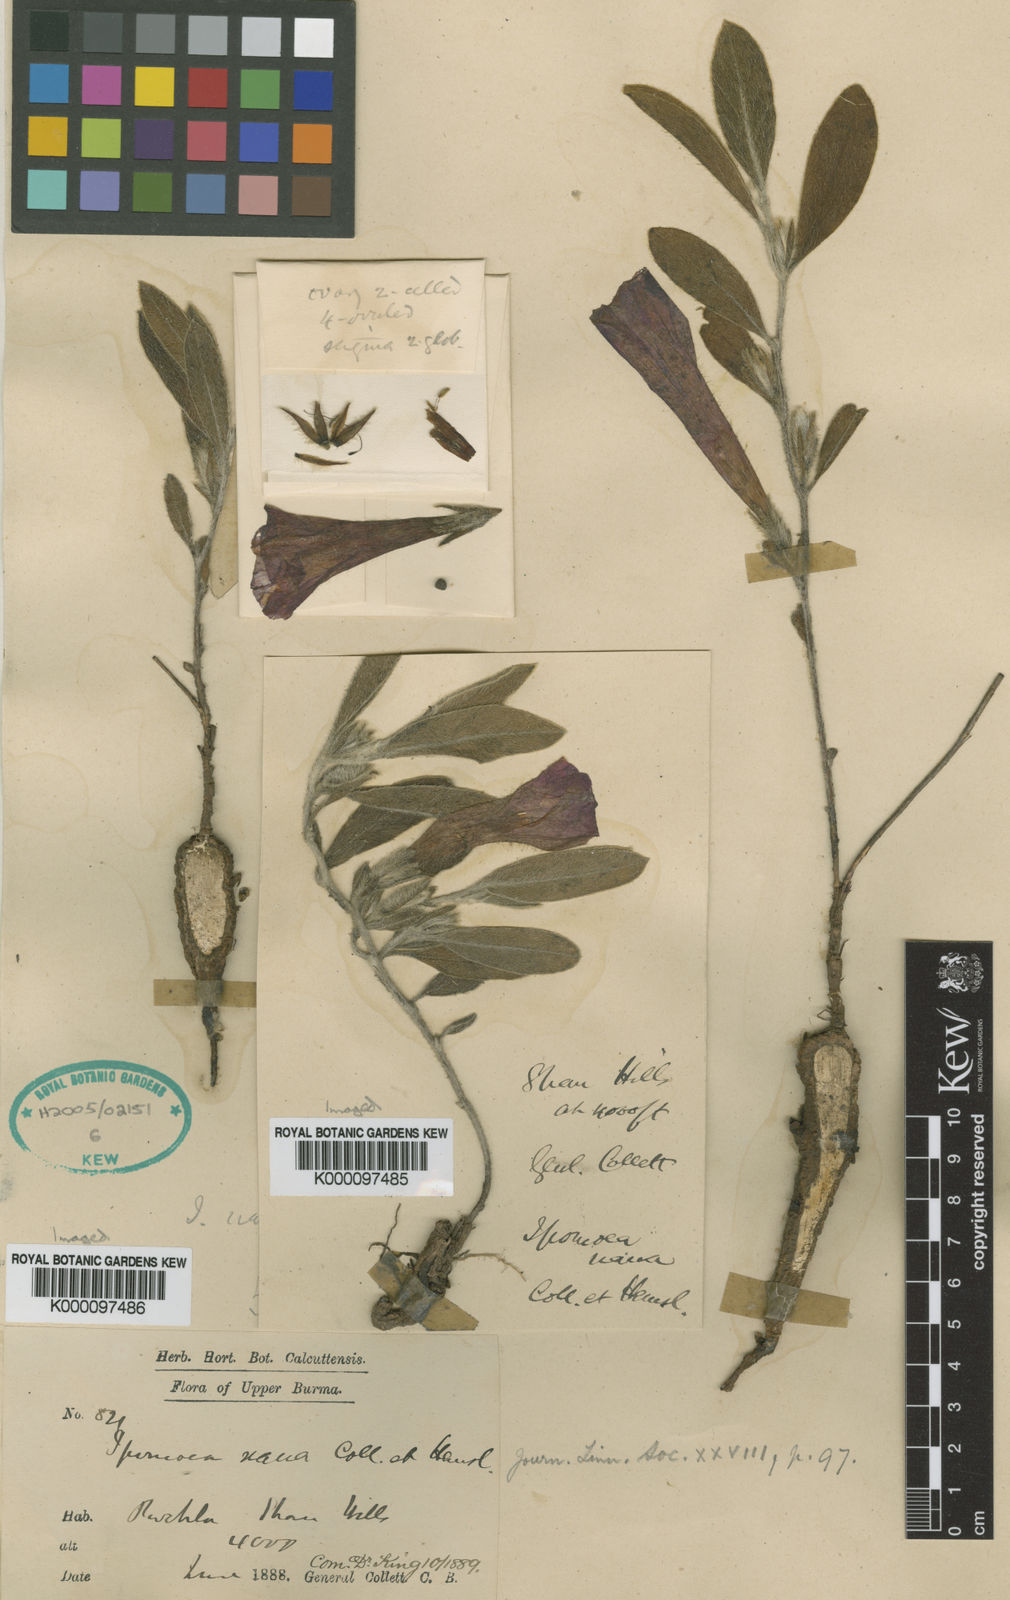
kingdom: Plantae
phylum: Tracheophyta
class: Magnoliopsida
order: Solanales
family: Convolvulaceae
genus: Ipomoea
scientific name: Ipomoea barlerioides
